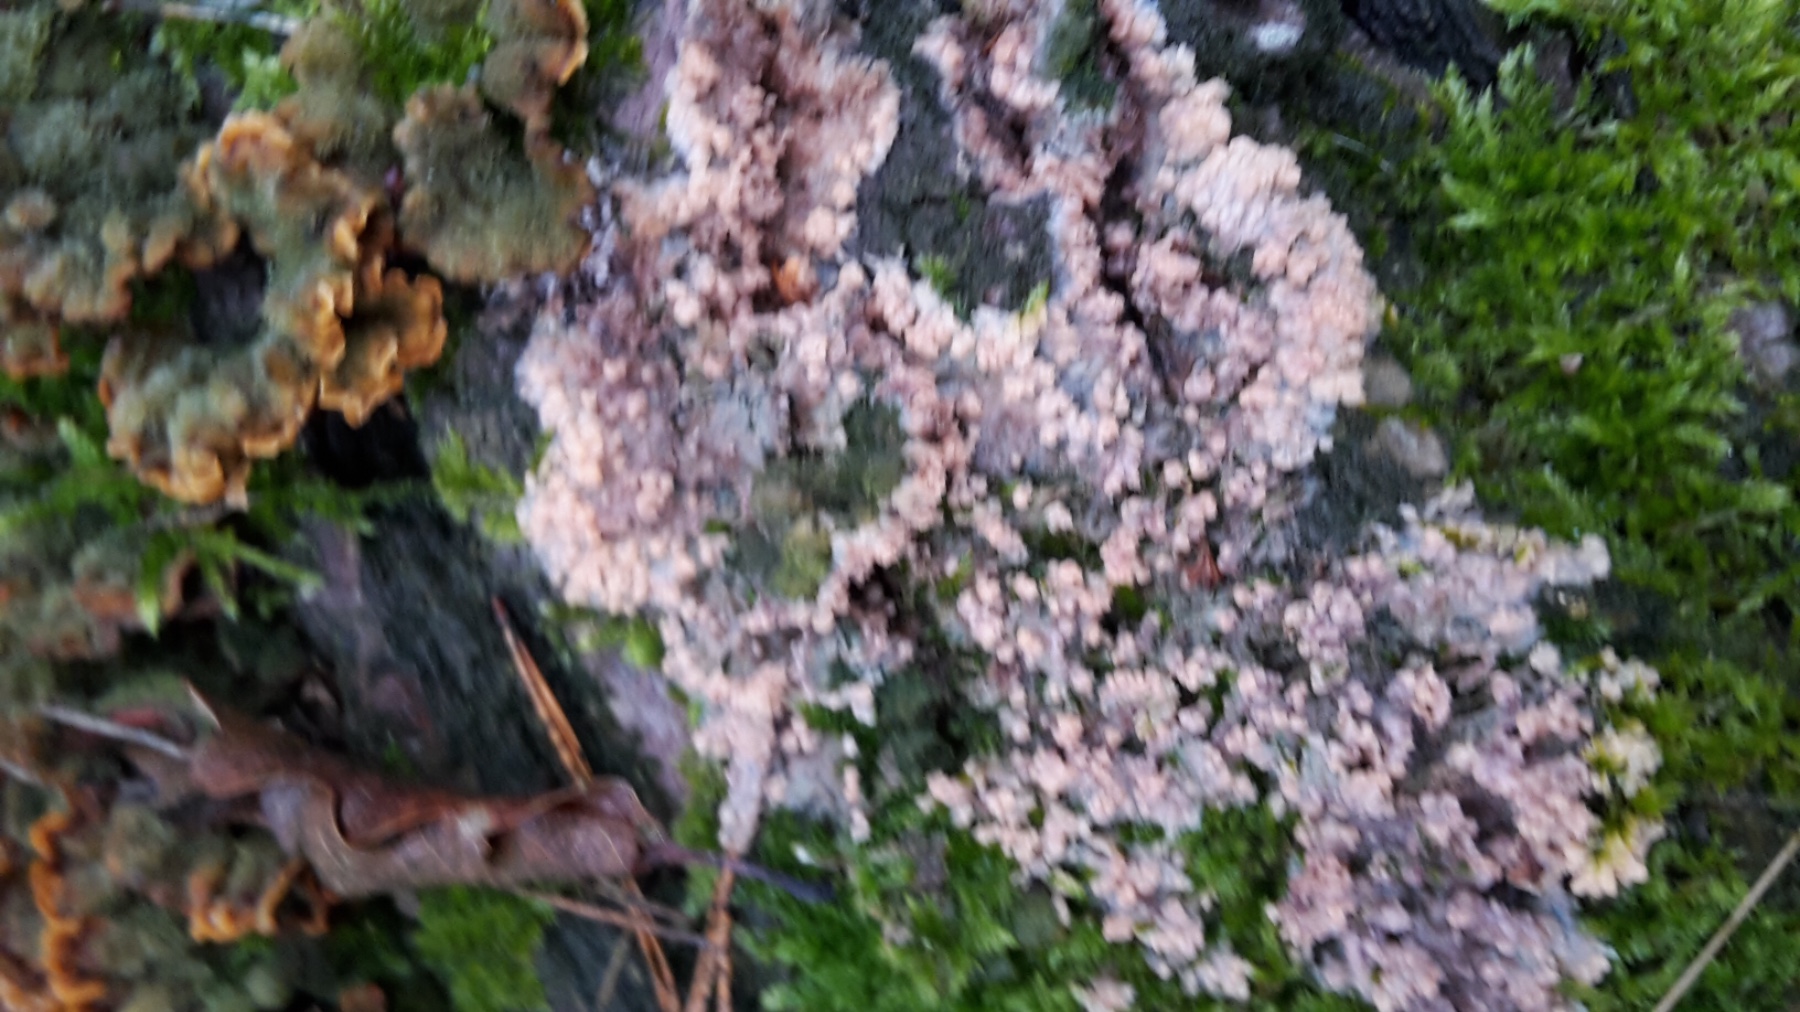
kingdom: Fungi
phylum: Basidiomycota
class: Agaricomycetes
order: Polyporales
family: Meruliaceae
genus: Phlebia
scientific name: Phlebia radiata
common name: stråle-åresvamp
